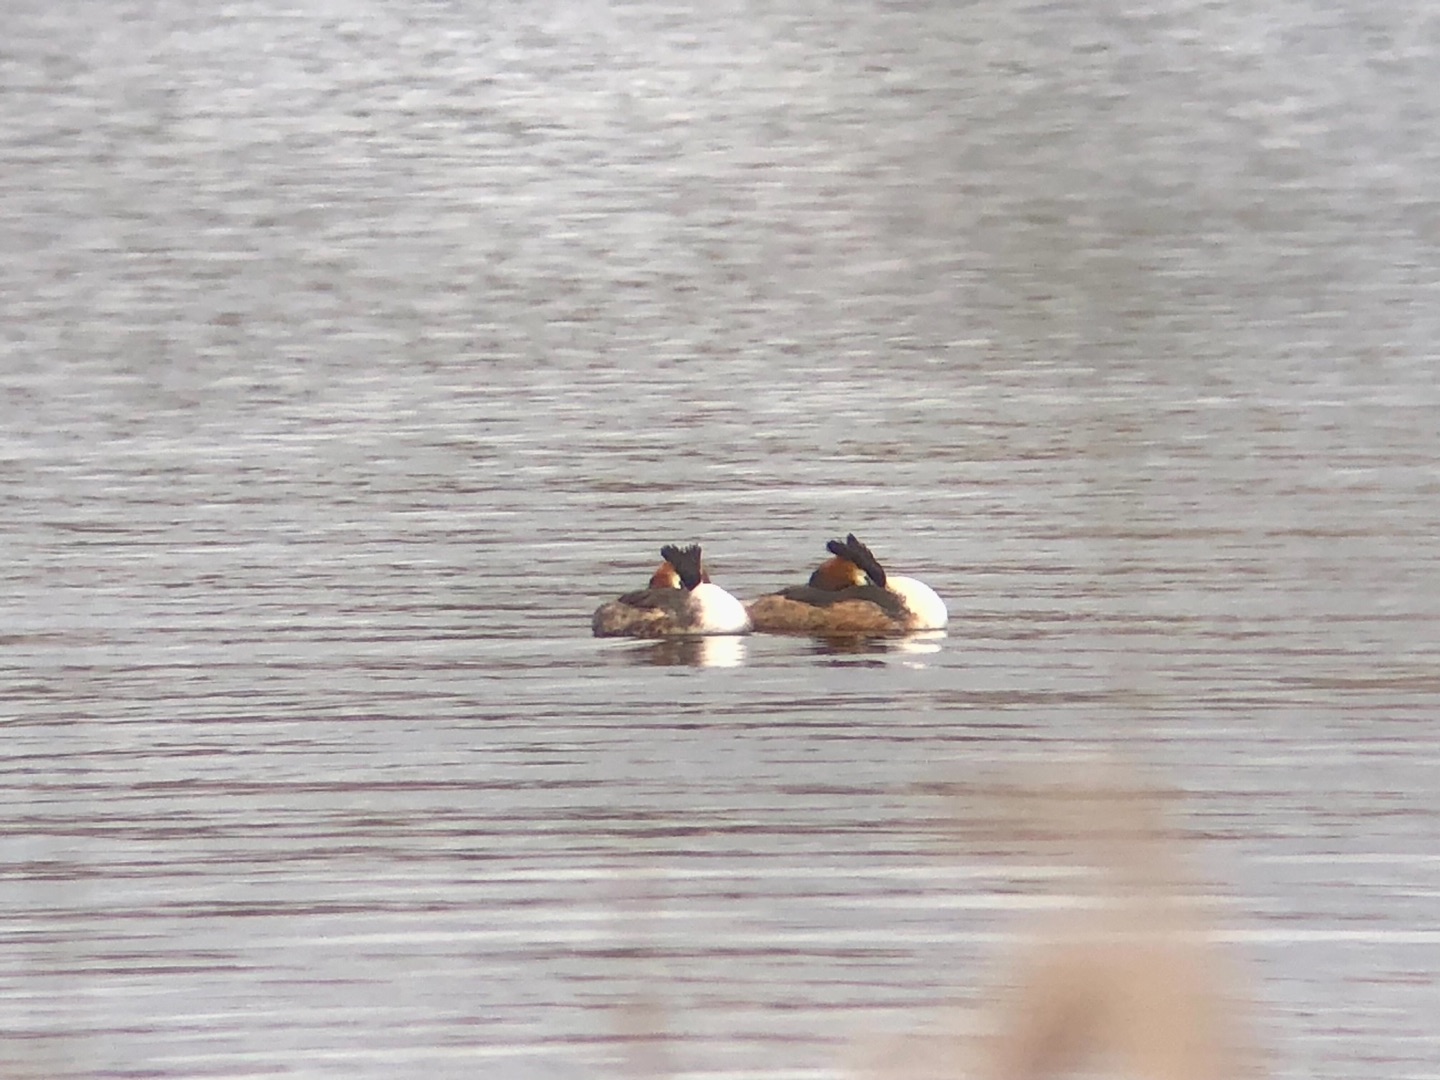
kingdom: Animalia
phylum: Chordata
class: Aves
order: Podicipediformes
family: Podicipedidae
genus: Podiceps
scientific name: Podiceps cristatus
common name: Toppet lappedykker
